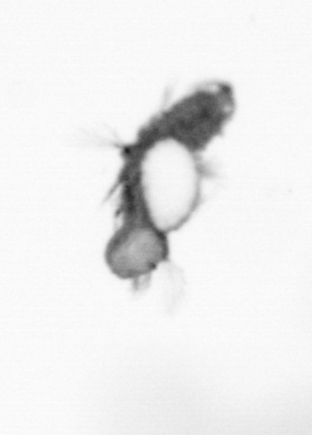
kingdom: Animalia
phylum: Annelida
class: Polychaeta
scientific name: Polychaeta
